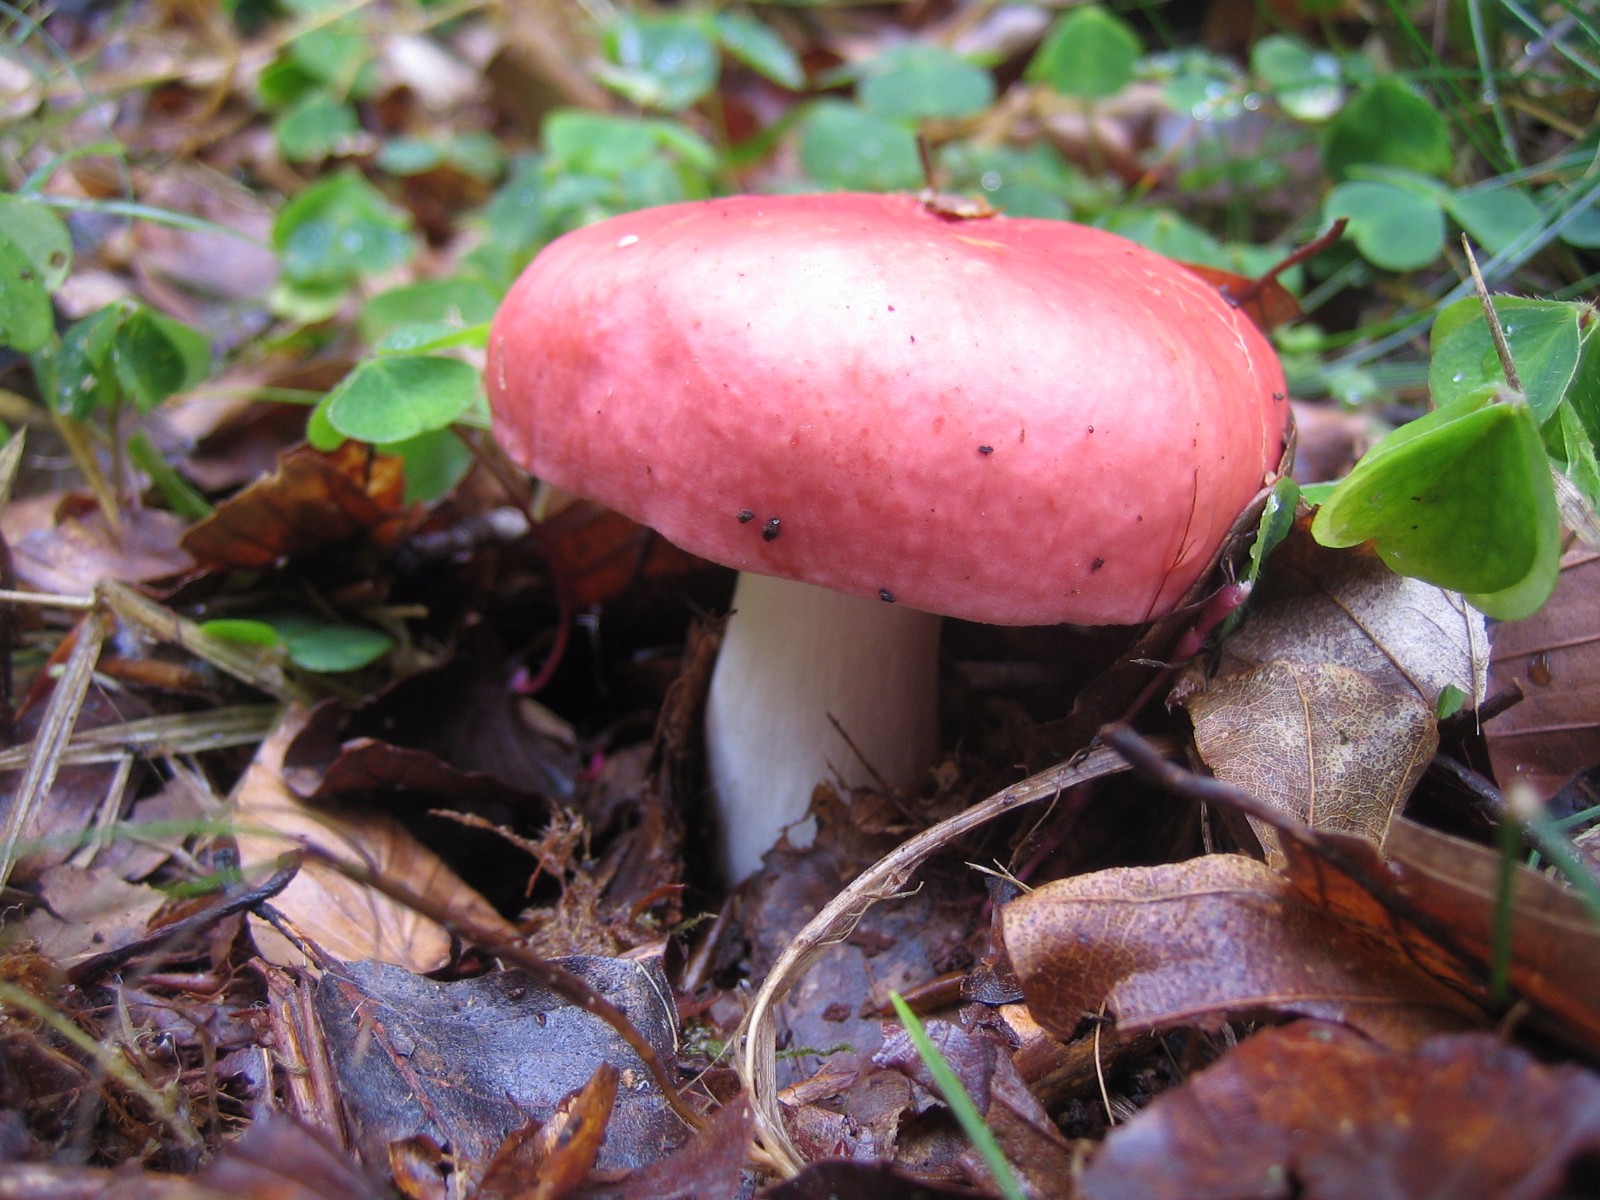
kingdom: Fungi
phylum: Basidiomycota
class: Agaricomycetes
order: Russulales
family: Russulaceae
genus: Russula
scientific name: Russula
